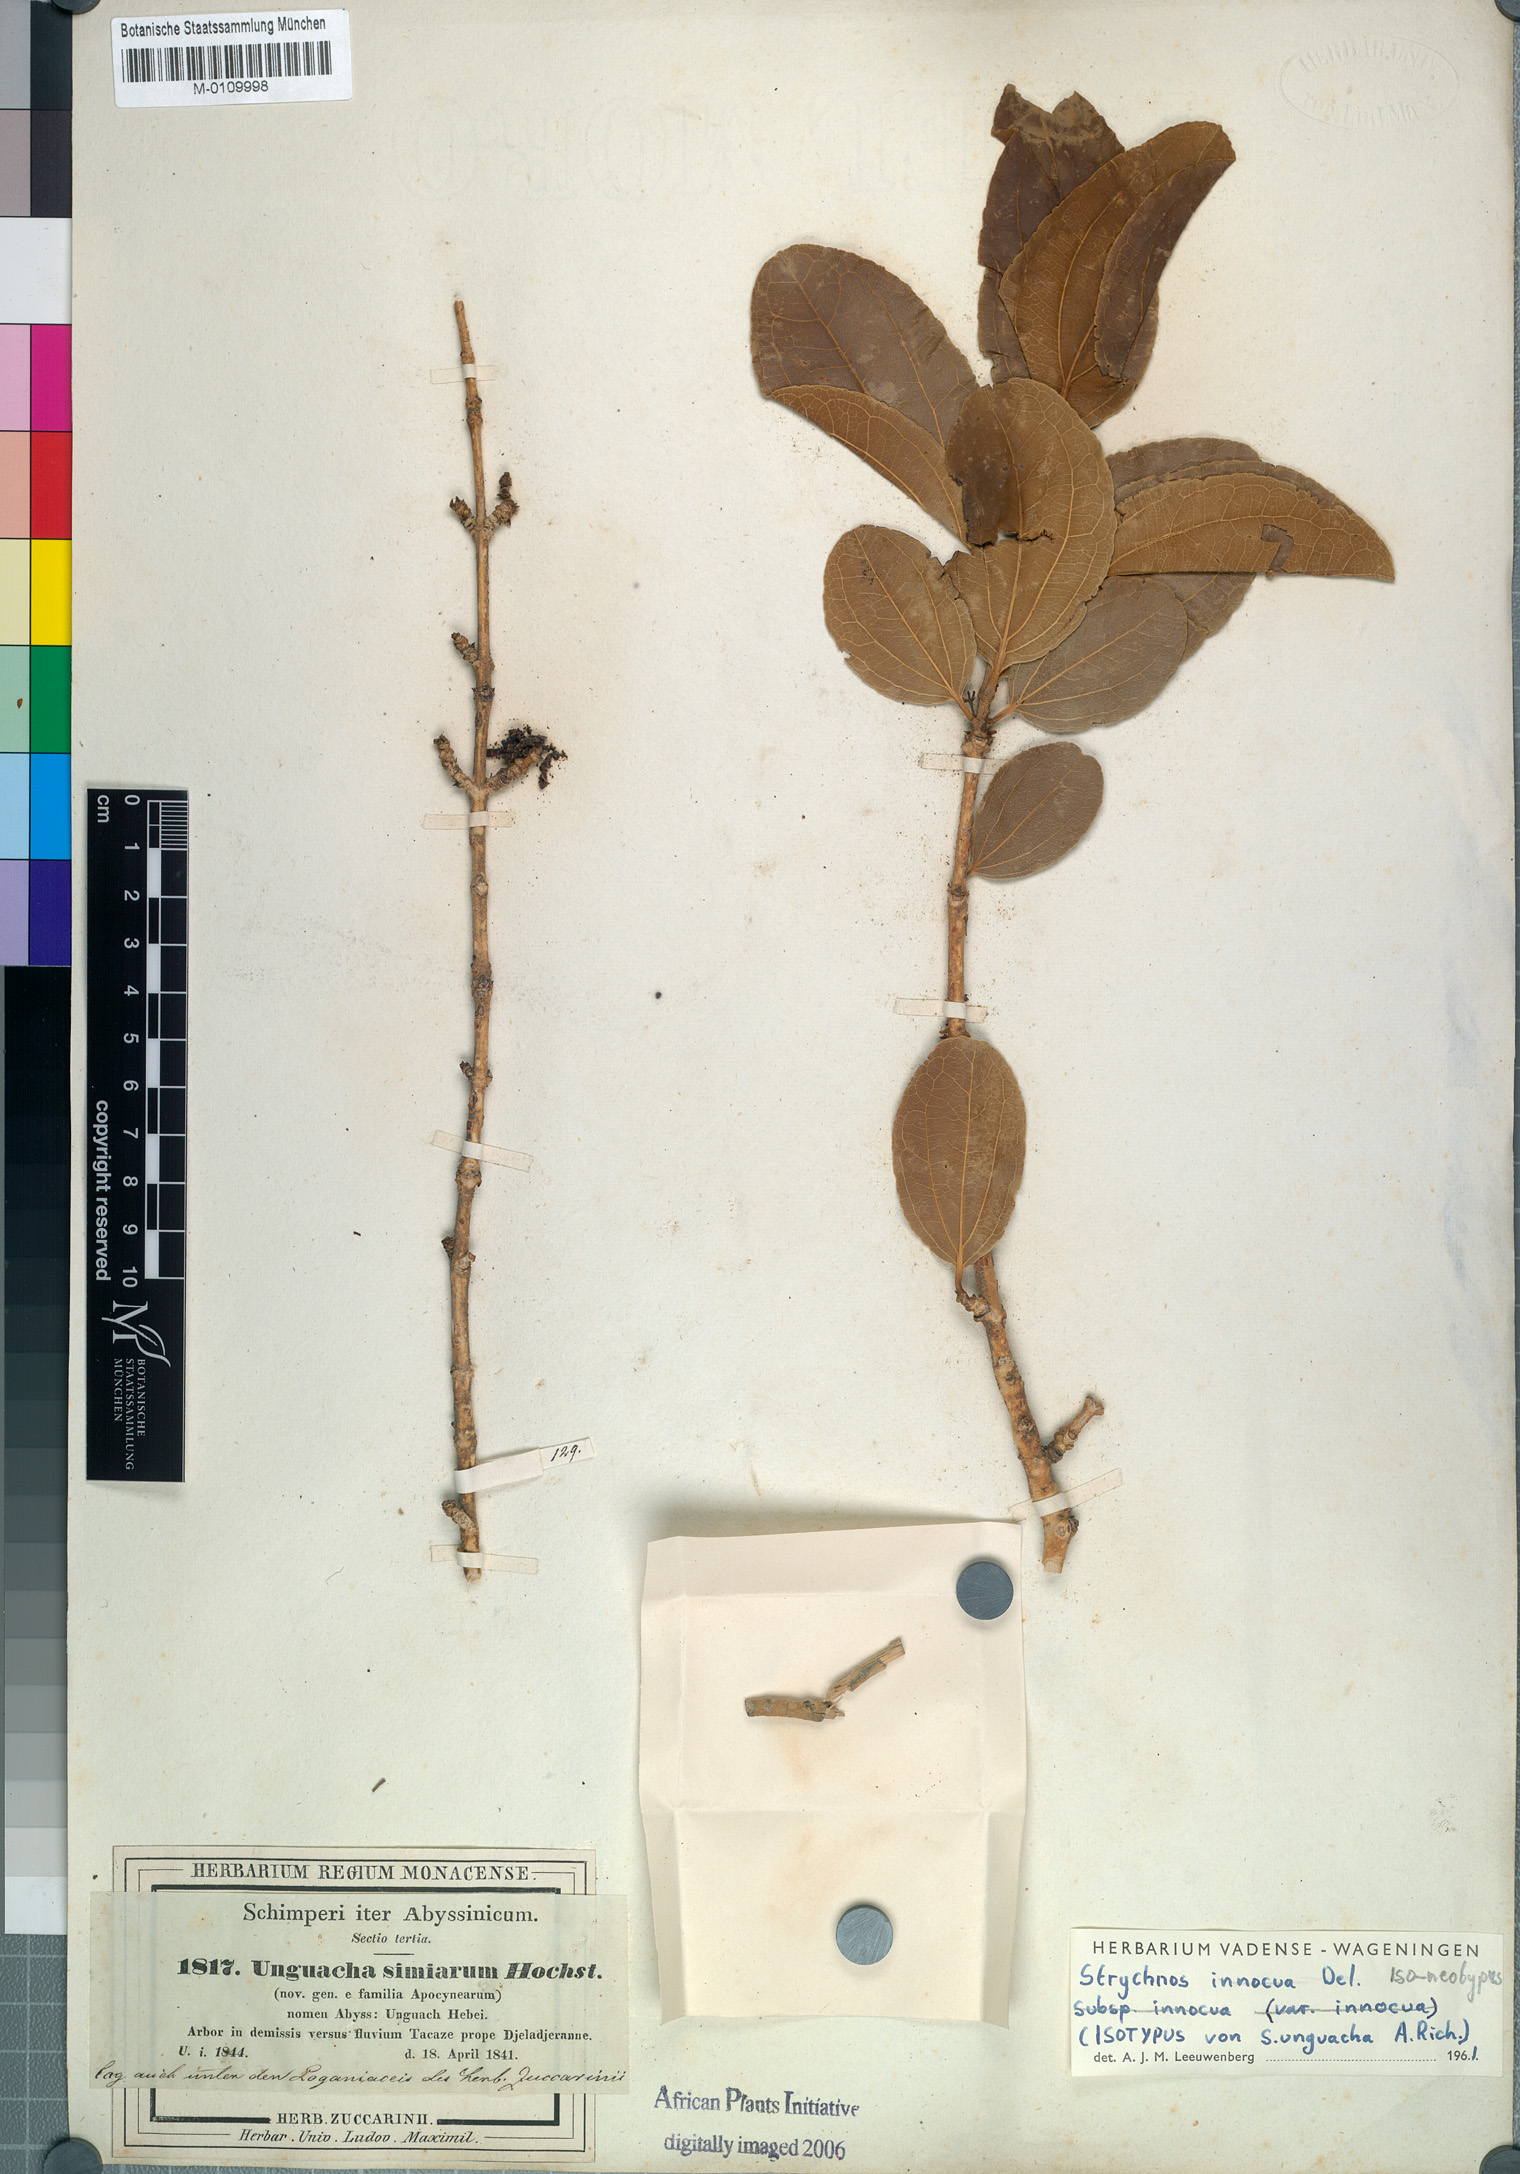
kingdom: Plantae
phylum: Tracheophyta
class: Magnoliopsida
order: Gentianales
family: Loganiaceae
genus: Strychnos
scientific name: Strychnos innocua
